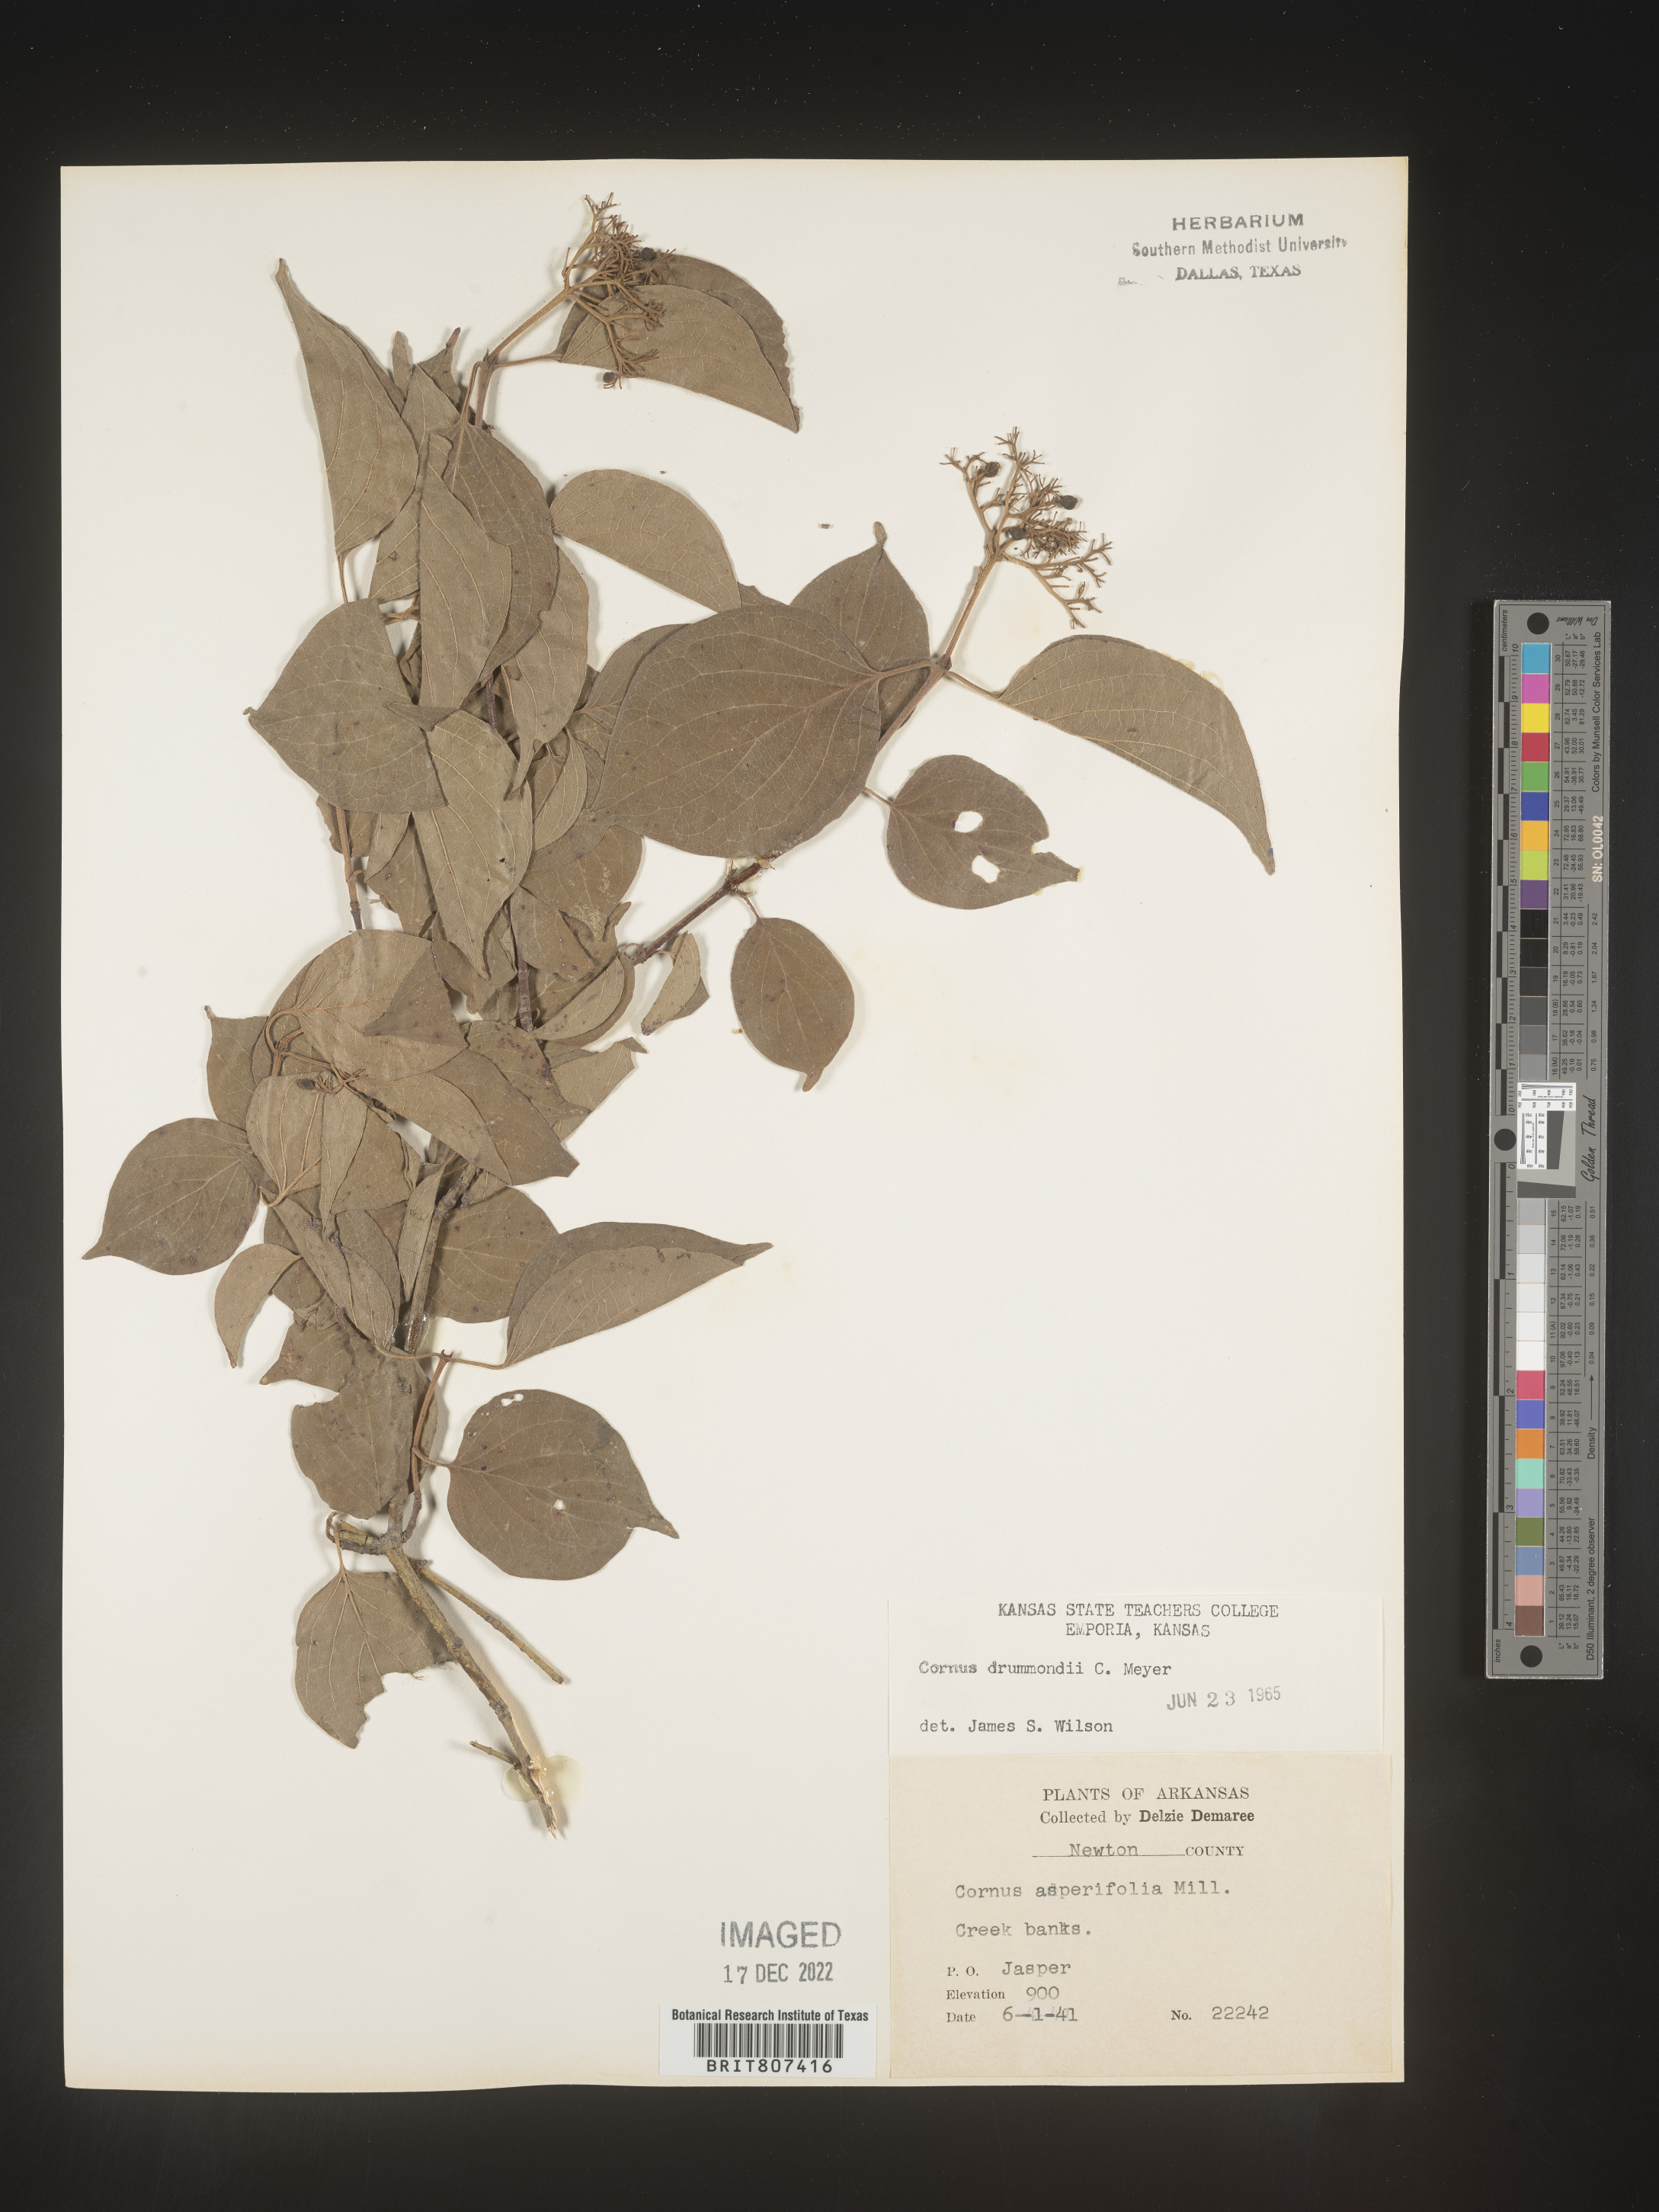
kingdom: Plantae
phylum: Tracheophyta
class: Magnoliopsida
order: Cornales
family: Cornaceae
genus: Cornus
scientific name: Cornus drummondii
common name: Rough-leaf dogwood
